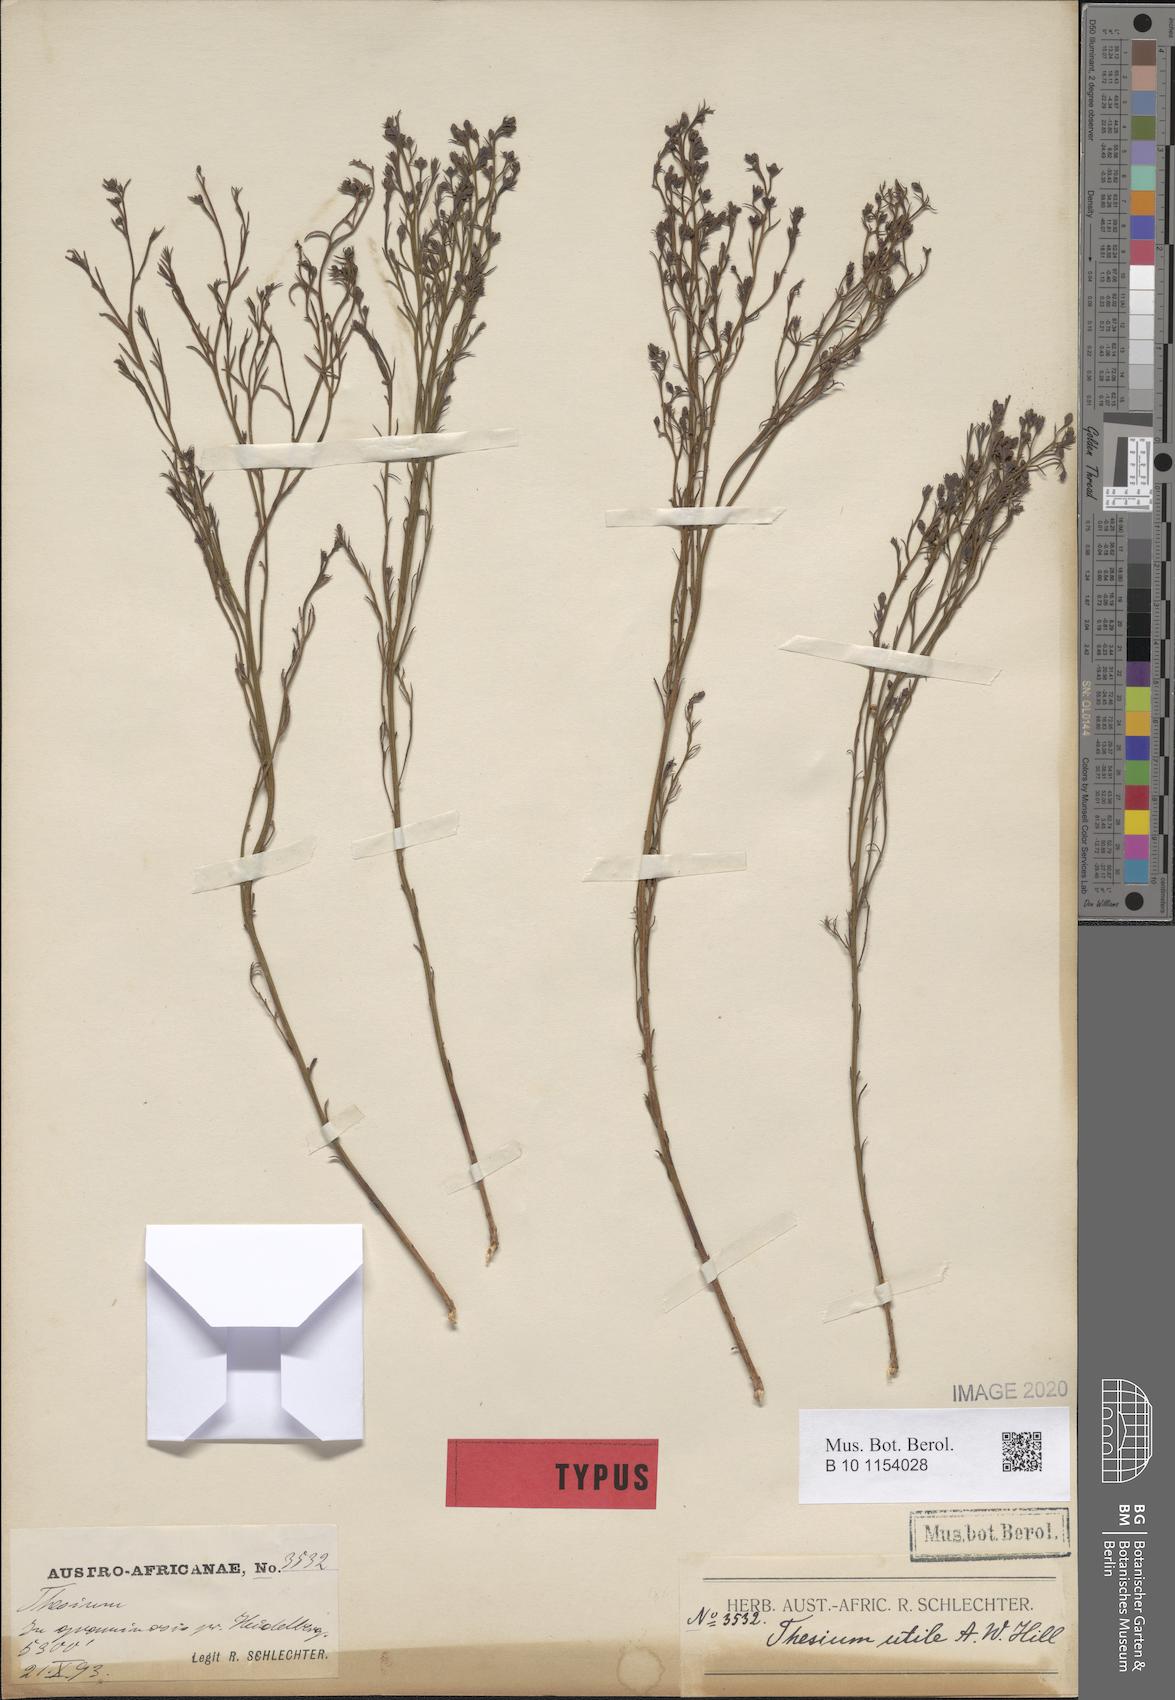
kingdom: Plantae
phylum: Tracheophyta
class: Magnoliopsida
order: Santalales
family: Thesiaceae
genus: Thesium
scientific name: Thesium utile
